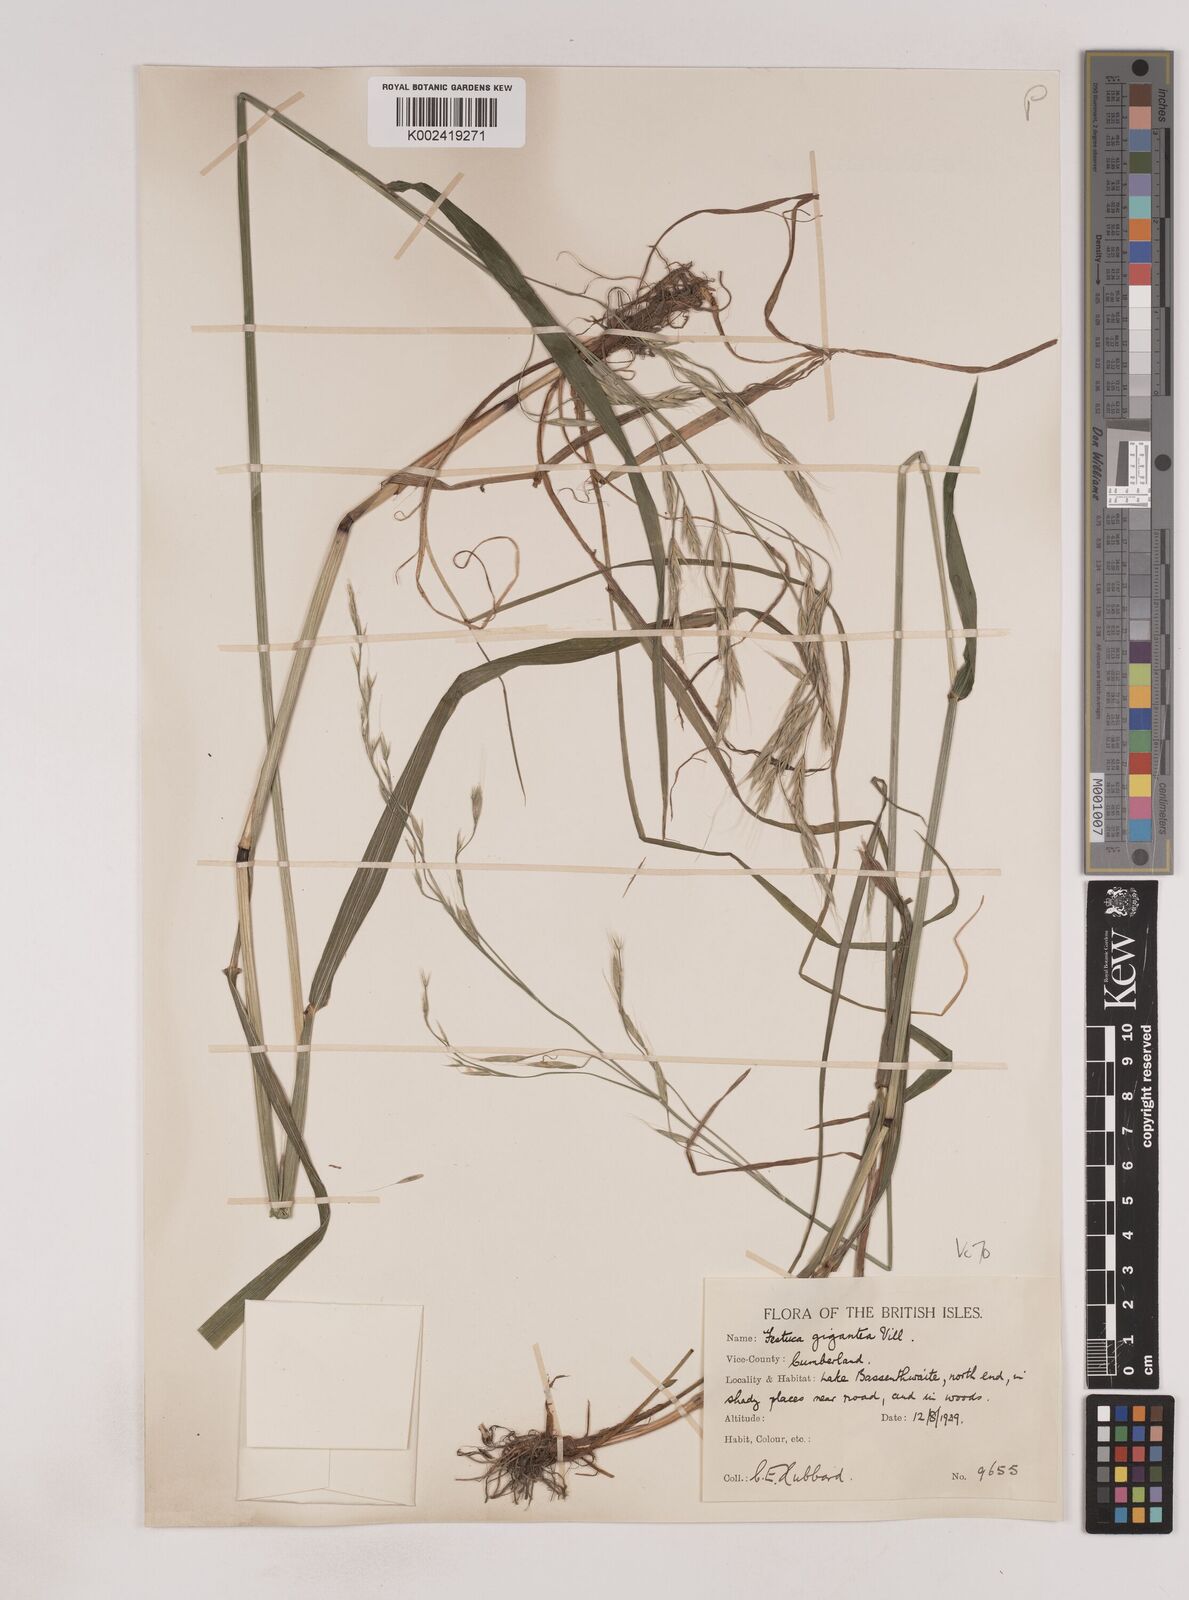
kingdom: Plantae
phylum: Tracheophyta
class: Liliopsida
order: Poales
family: Poaceae
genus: Lolium
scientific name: Lolium giganteum
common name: Giant fescue
